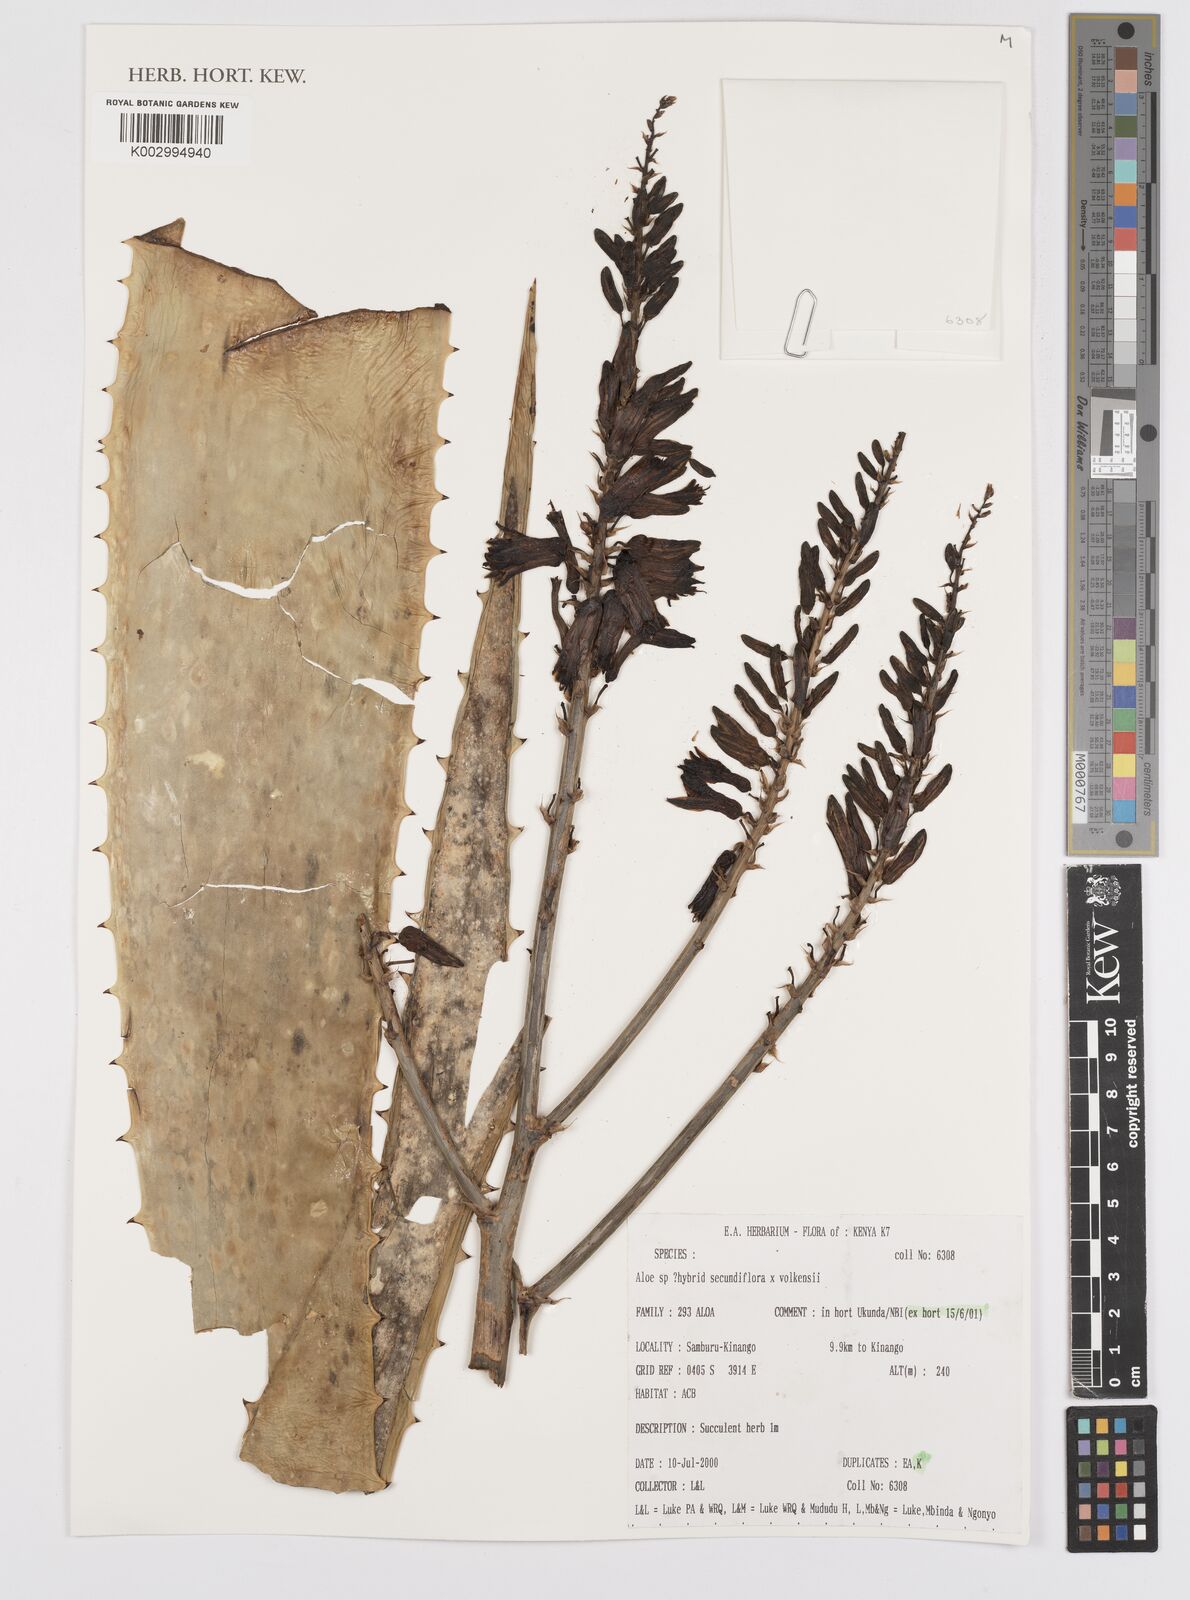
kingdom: Plantae
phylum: Tracheophyta
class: Liliopsida
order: Asparagales
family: Asphodelaceae
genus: Aloe
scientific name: Aloe
